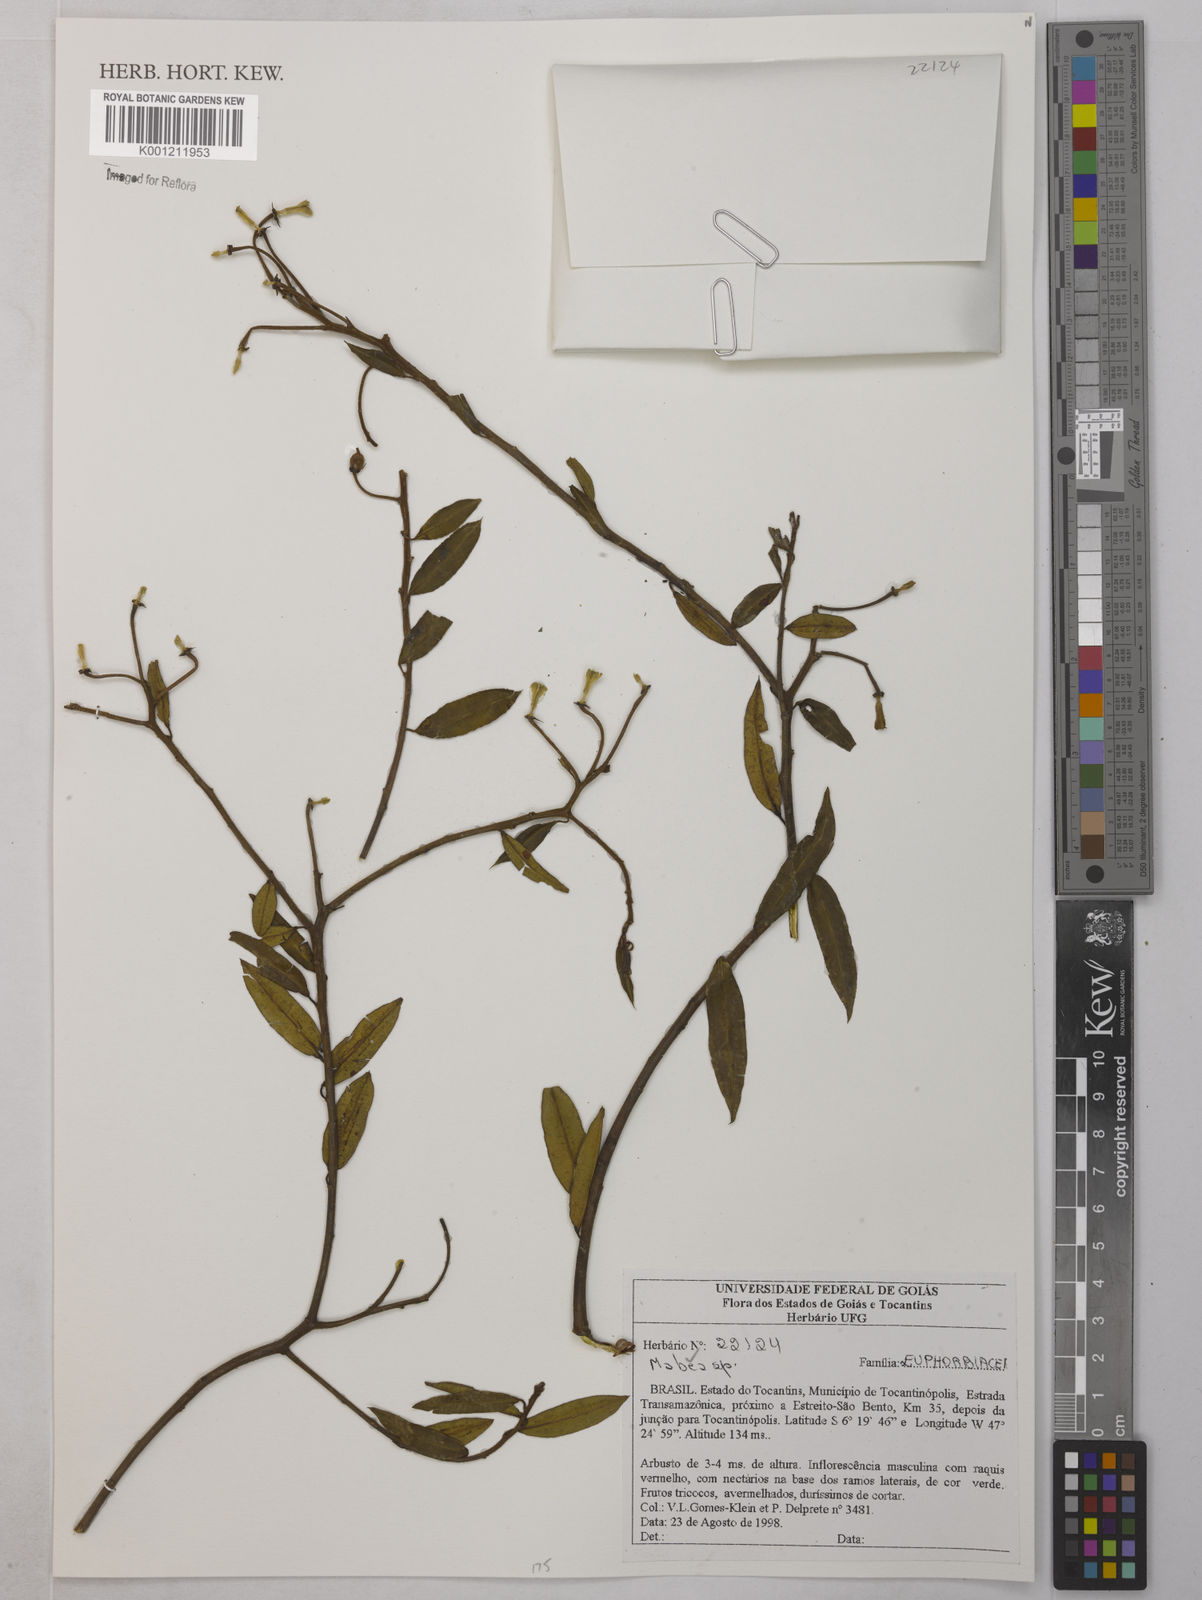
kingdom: Plantae
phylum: Tracheophyta
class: Magnoliopsida
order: Malpighiales
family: Euphorbiaceae
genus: Mabea
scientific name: Mabea
